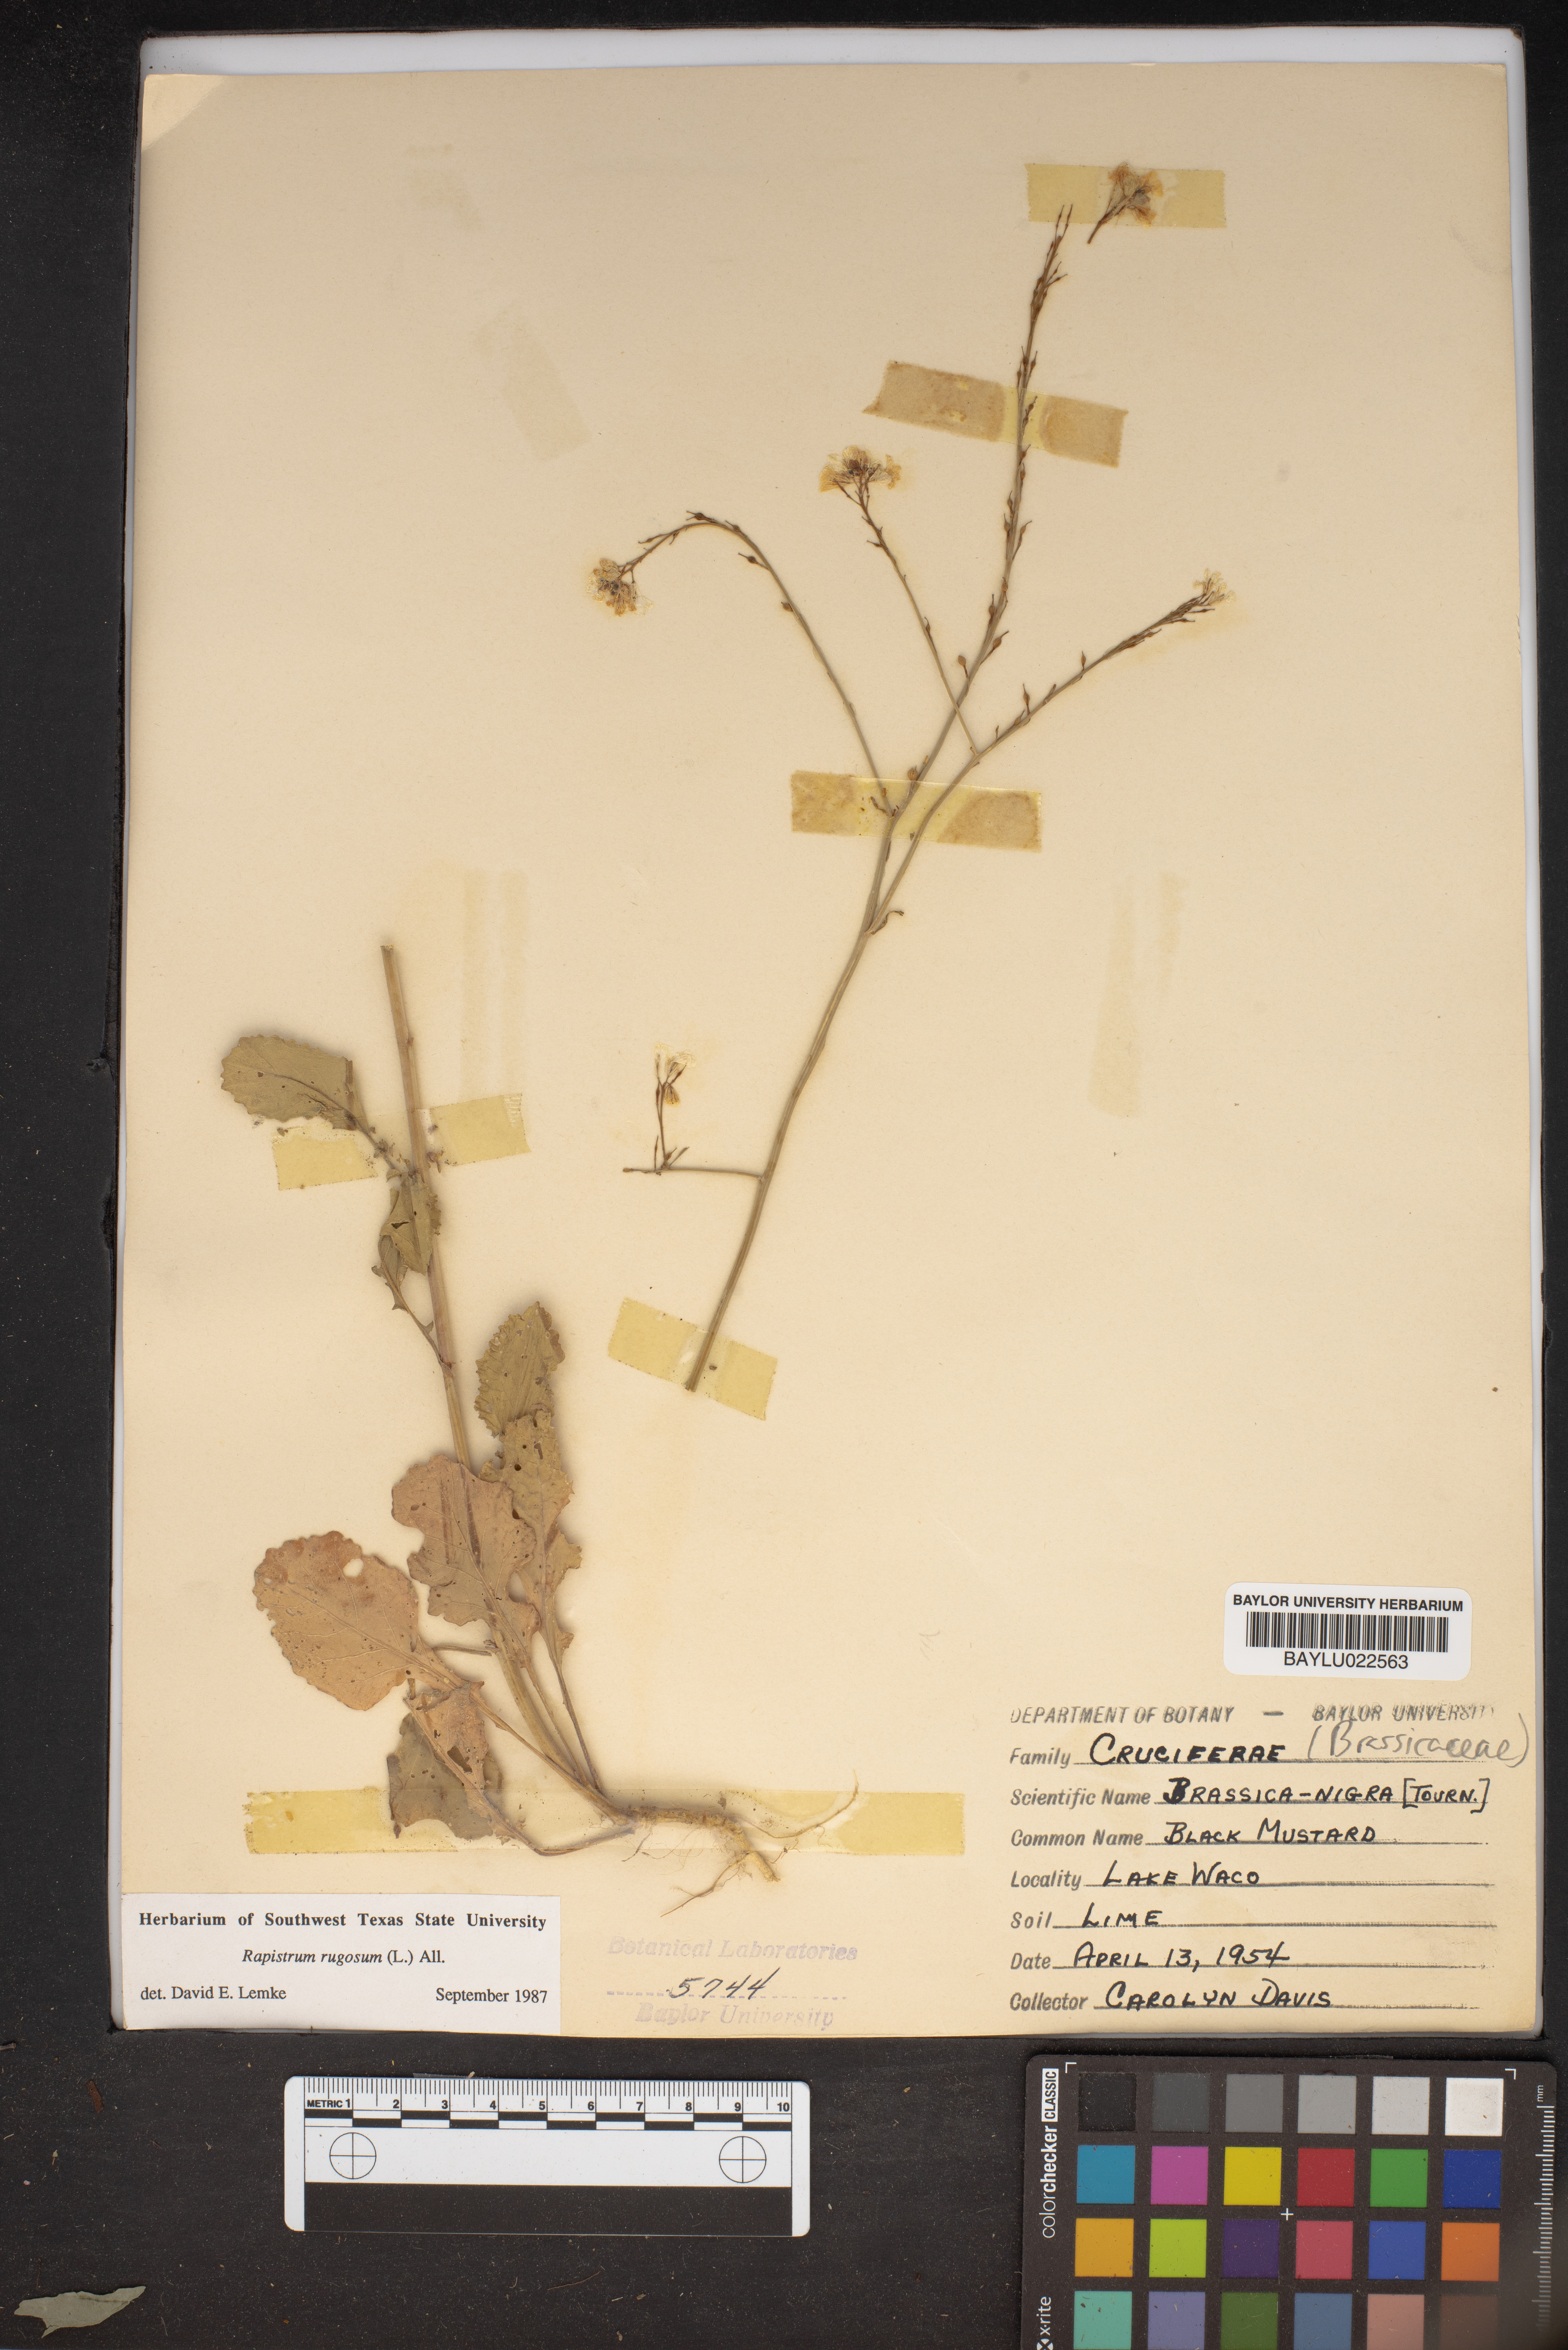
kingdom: Plantae
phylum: Tracheophyta
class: Magnoliopsida
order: Brassicales
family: Brassicaceae
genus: Rapistrum
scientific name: Rapistrum rugosum
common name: Annual bastardcabbage
